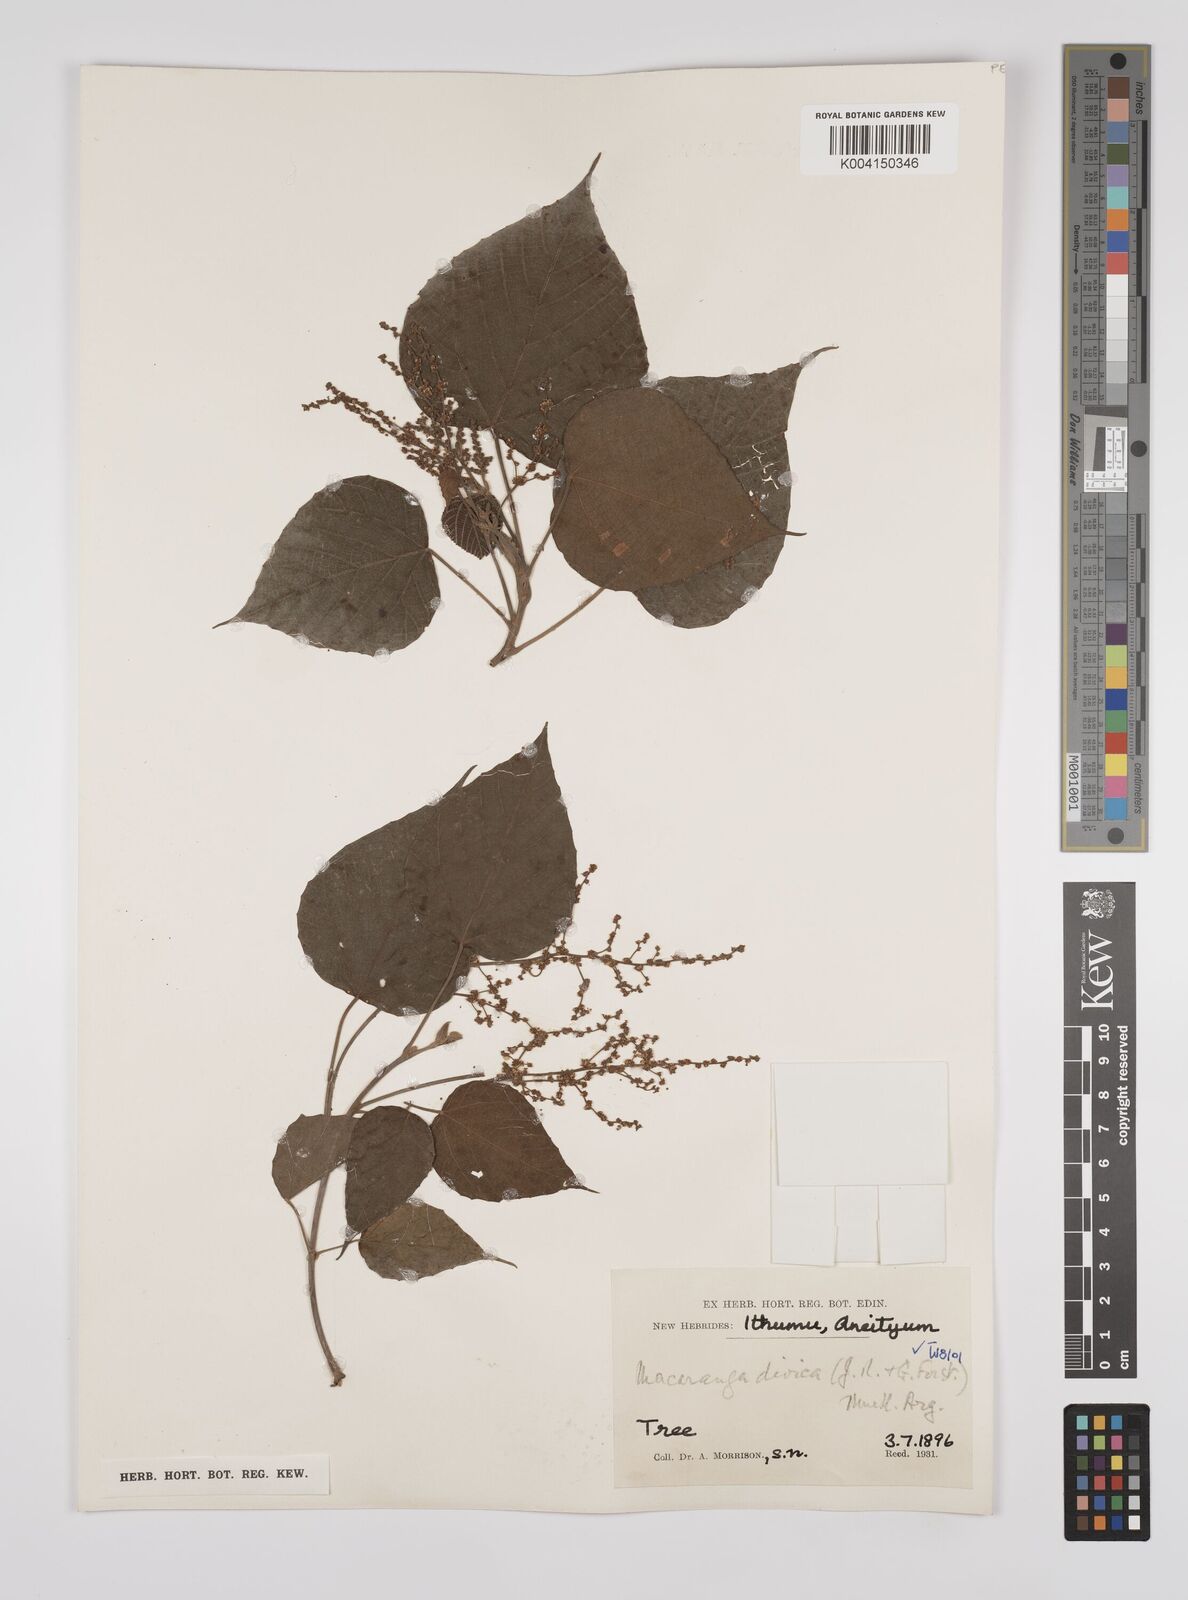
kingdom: Plantae
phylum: Tracheophyta
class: Magnoliopsida
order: Malpighiales
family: Euphorbiaceae
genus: Macaranga
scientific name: Macaranga dioica
